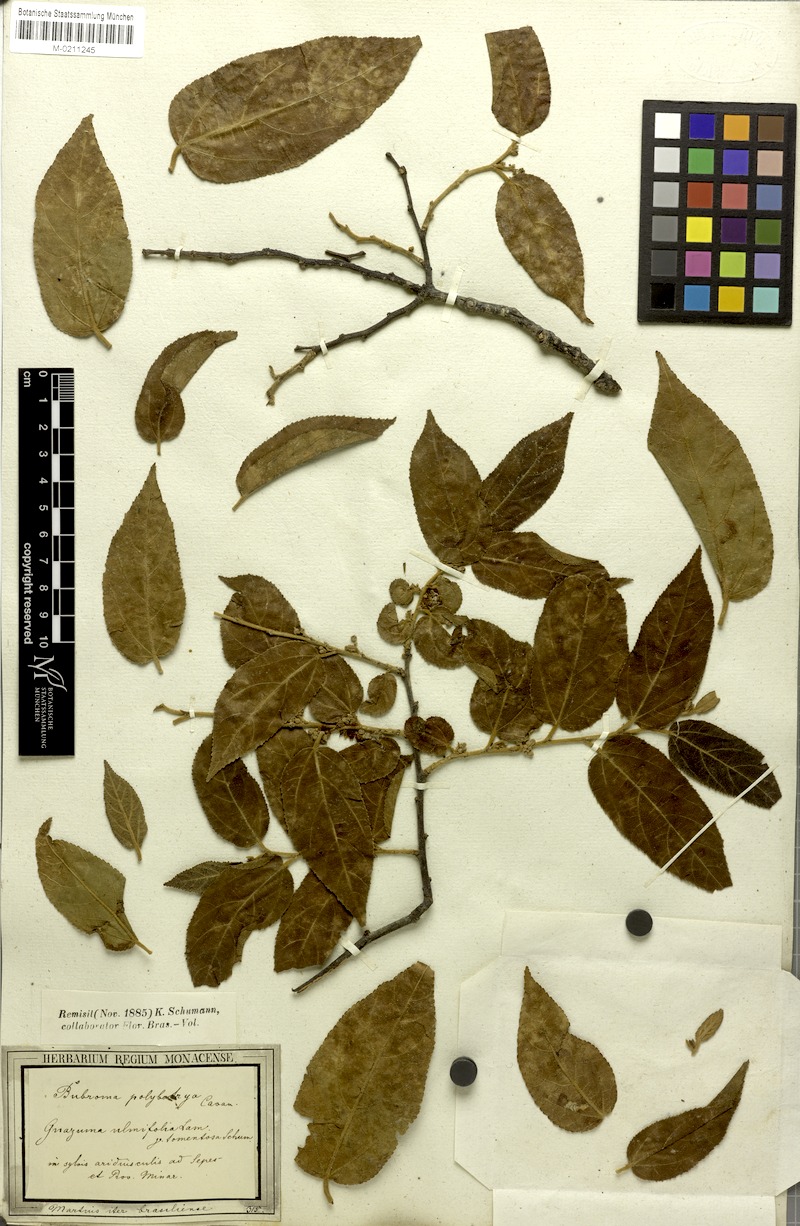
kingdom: Plantae
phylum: Tracheophyta
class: Magnoliopsida
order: Malvales
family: Malvaceae
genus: Guazuma
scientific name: Guazuma ulmifolia
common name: Bastard-cedar
